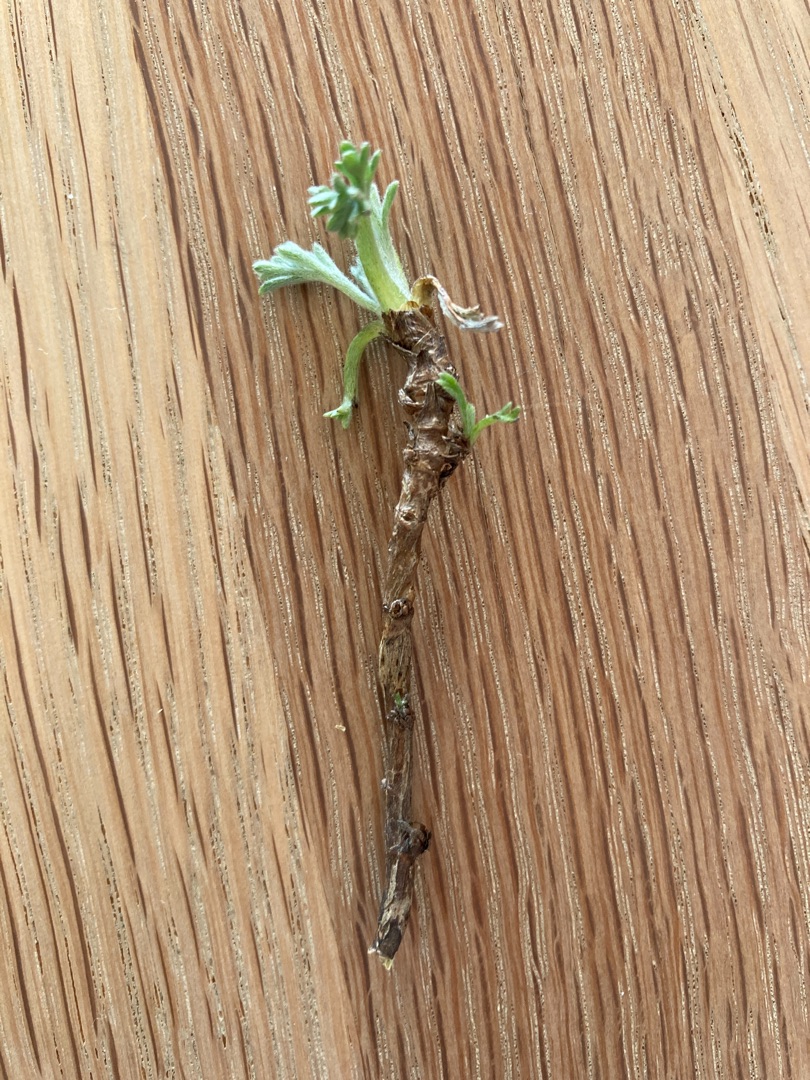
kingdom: Plantae
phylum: Tracheophyta
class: Magnoliopsida
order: Asterales
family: Asteraceae
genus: Artemisia
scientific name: Artemisia campestris
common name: Mark-bynke
